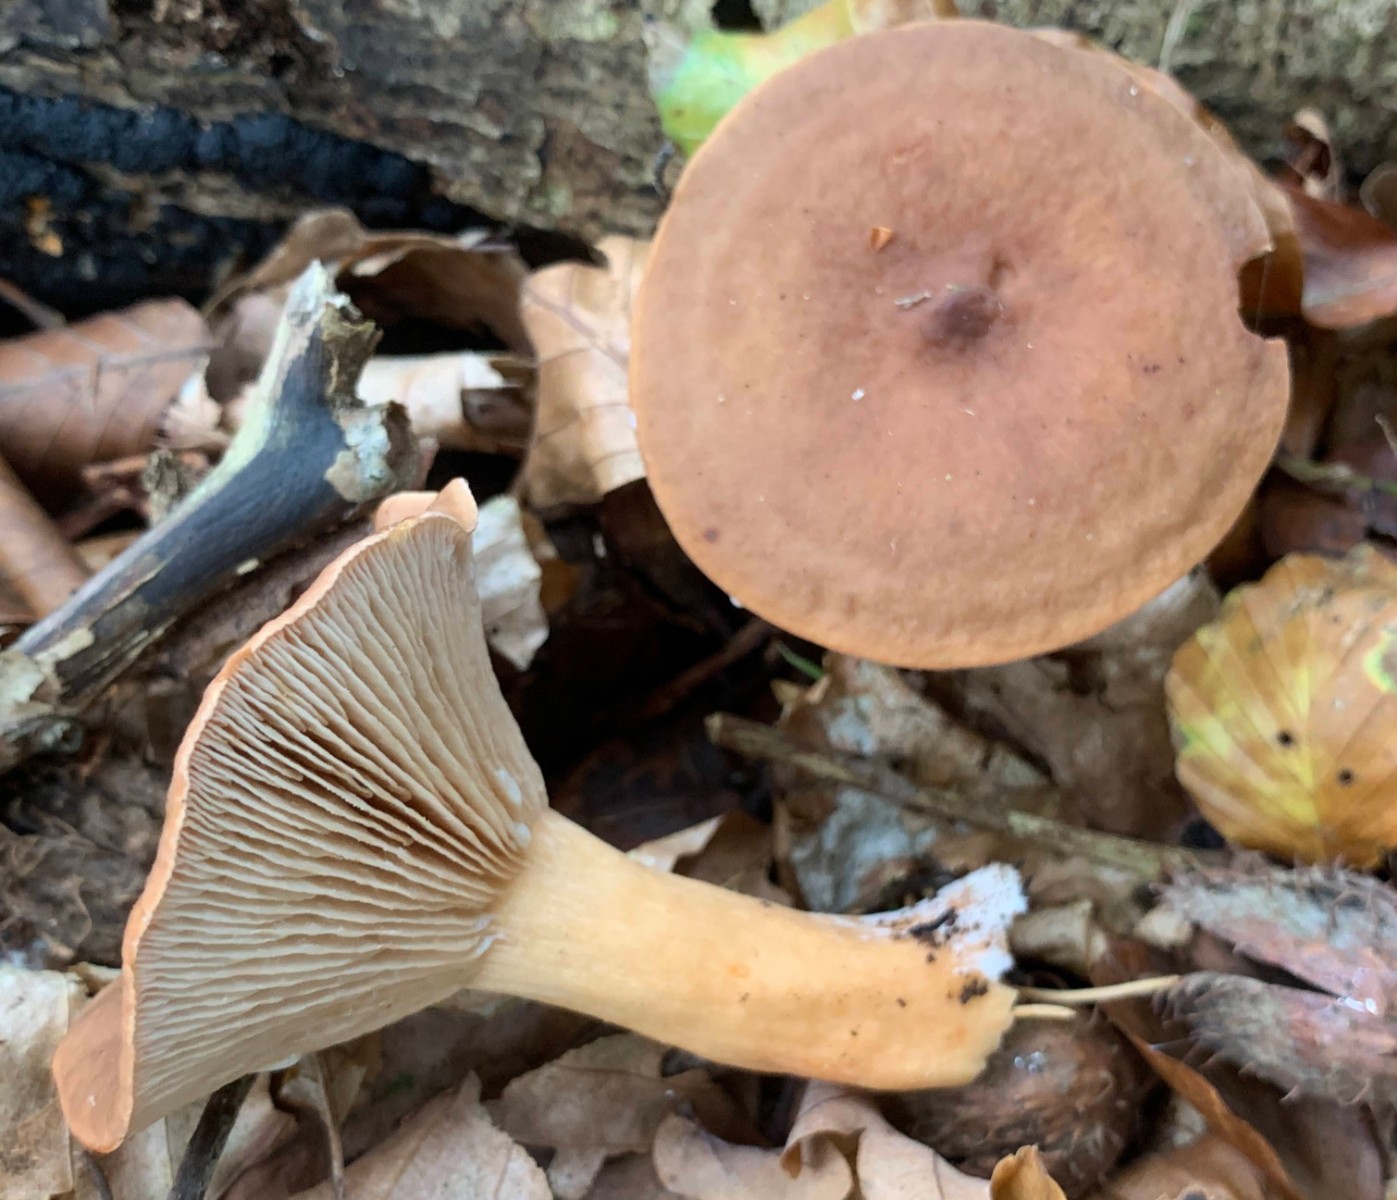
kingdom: Fungi
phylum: Basidiomycota
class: Agaricomycetes
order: Russulales
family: Russulaceae
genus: Lactarius
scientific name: Lactarius subdulcis
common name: sødlig mælkehat
